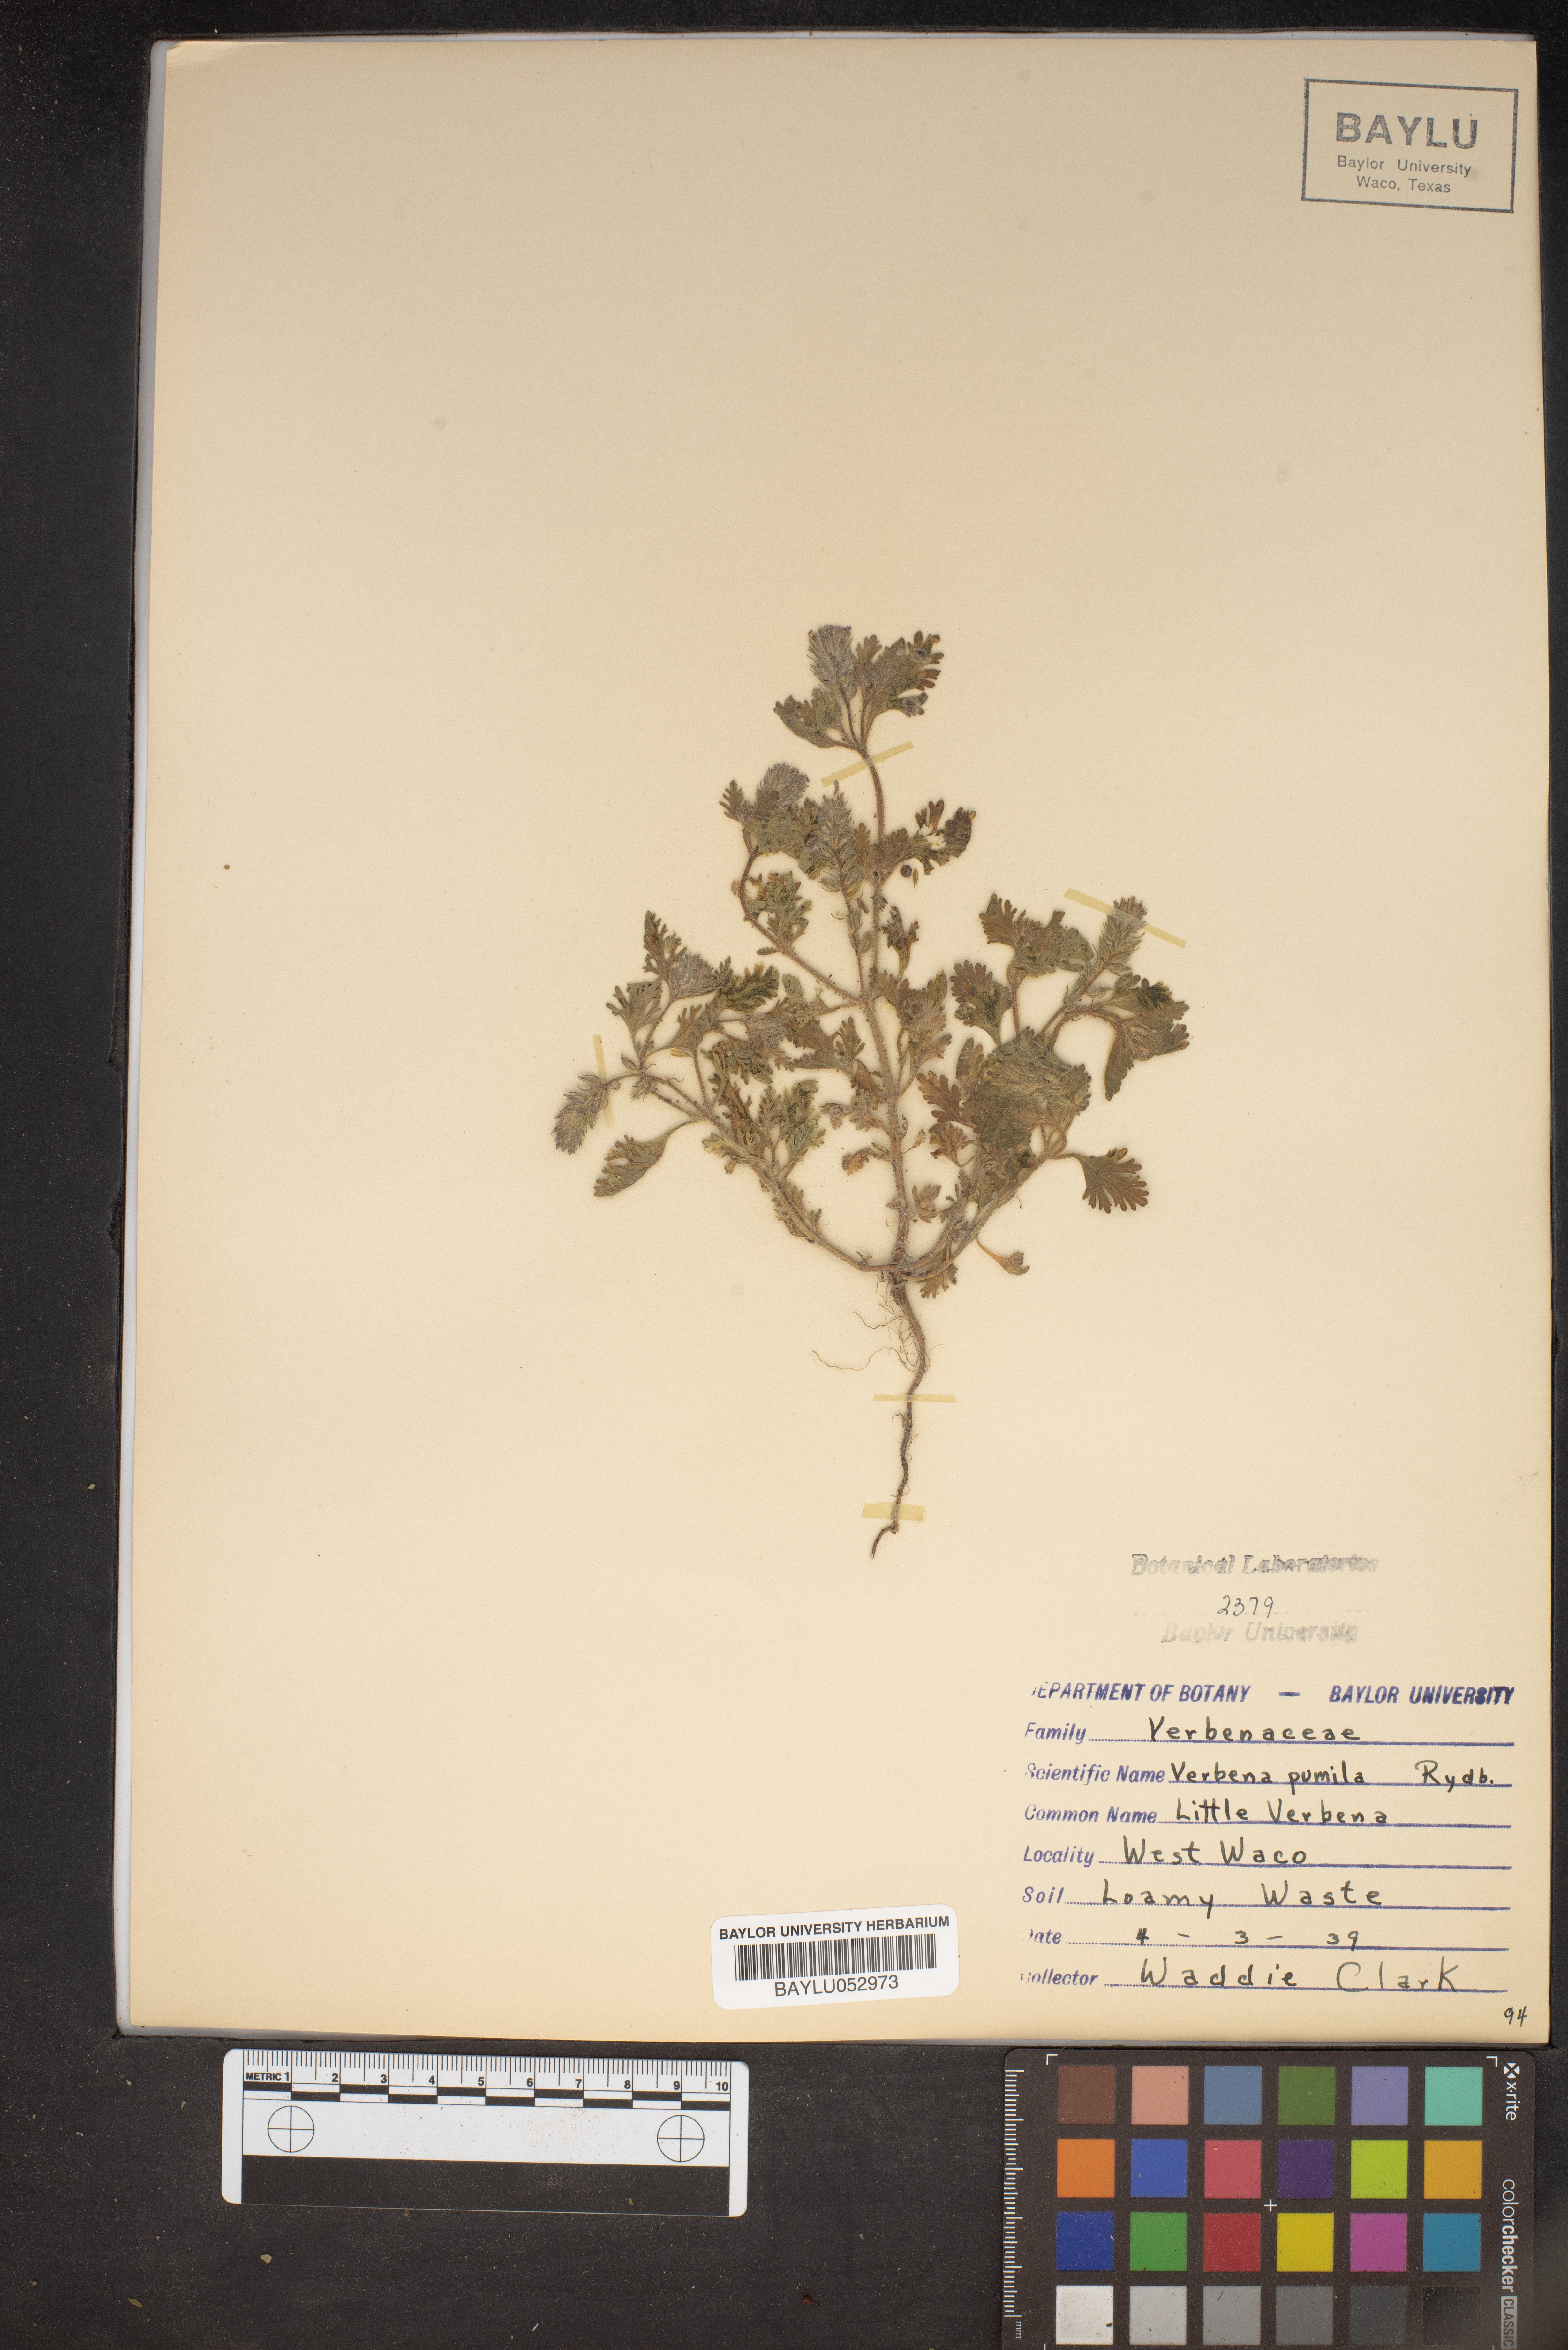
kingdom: Plantae
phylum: Tracheophyta
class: Magnoliopsida
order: Lamiales
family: Verbenaceae
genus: Verbena
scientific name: Verbena pumila
